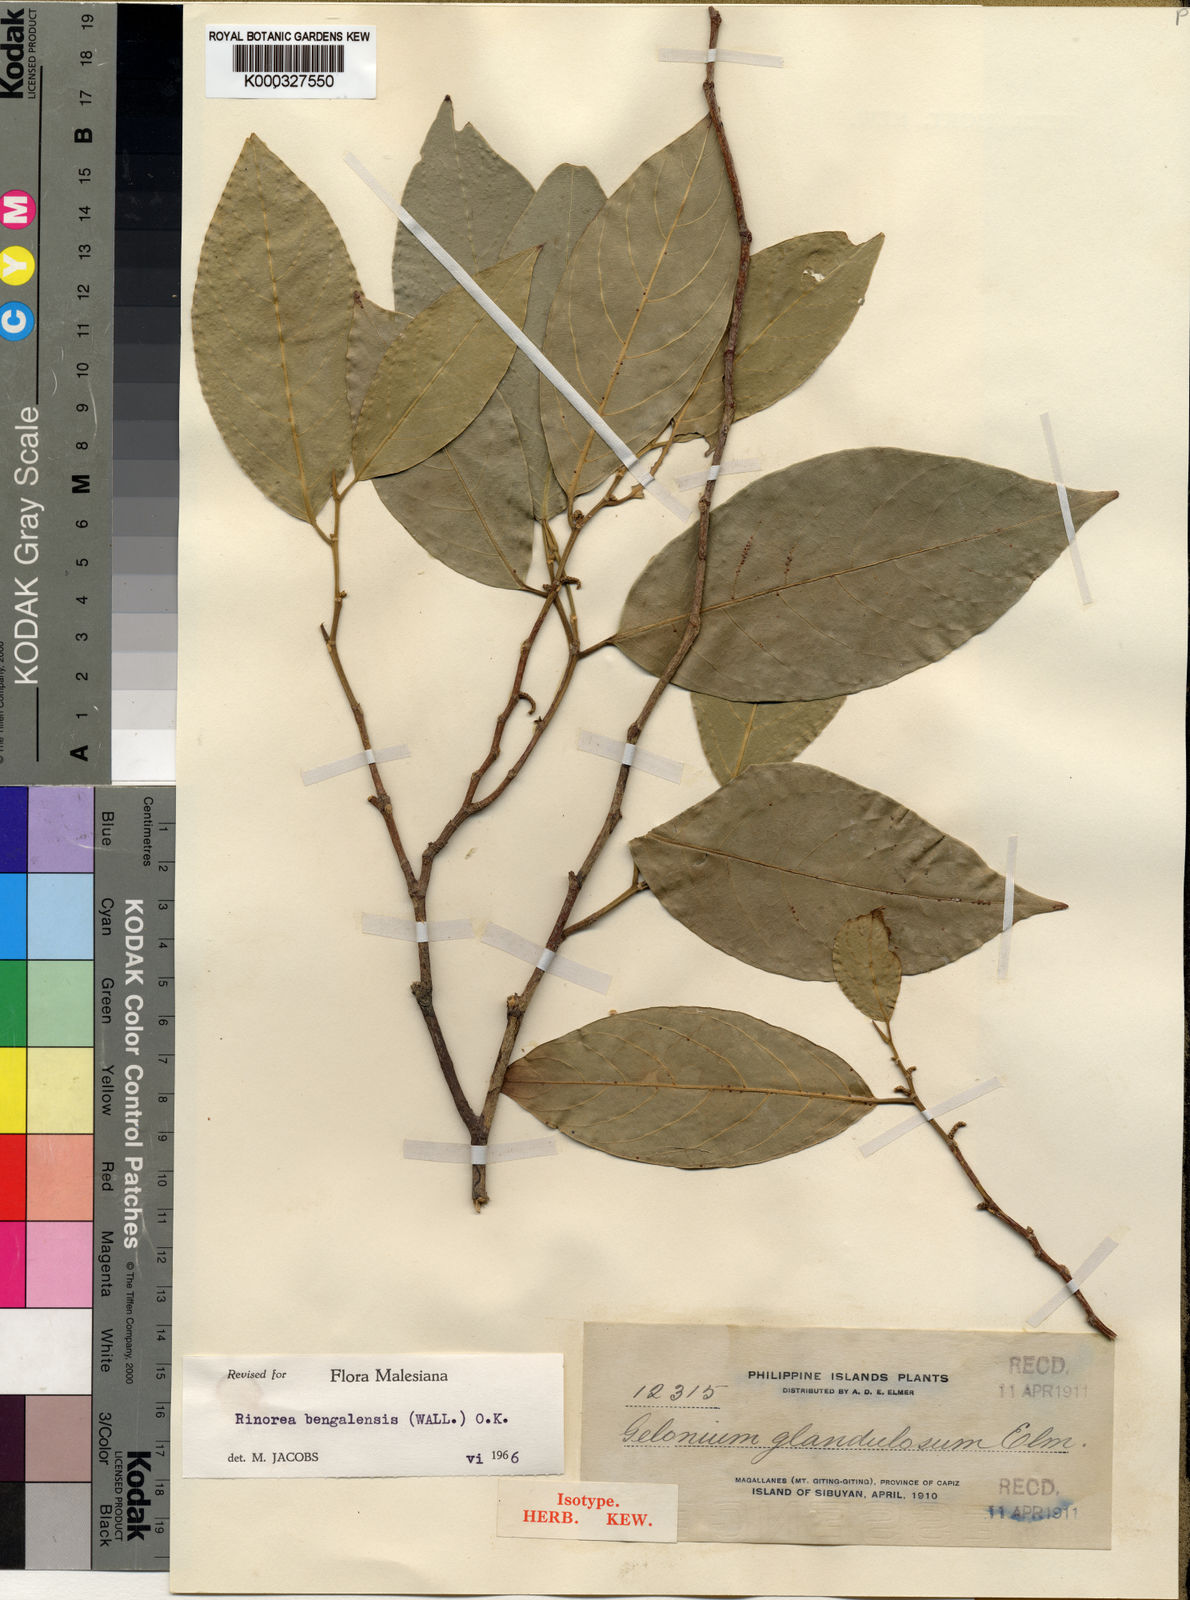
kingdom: Plantae
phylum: Tracheophyta
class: Magnoliopsida
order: Malpighiales
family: Violaceae
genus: Rinorea
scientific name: Rinorea
